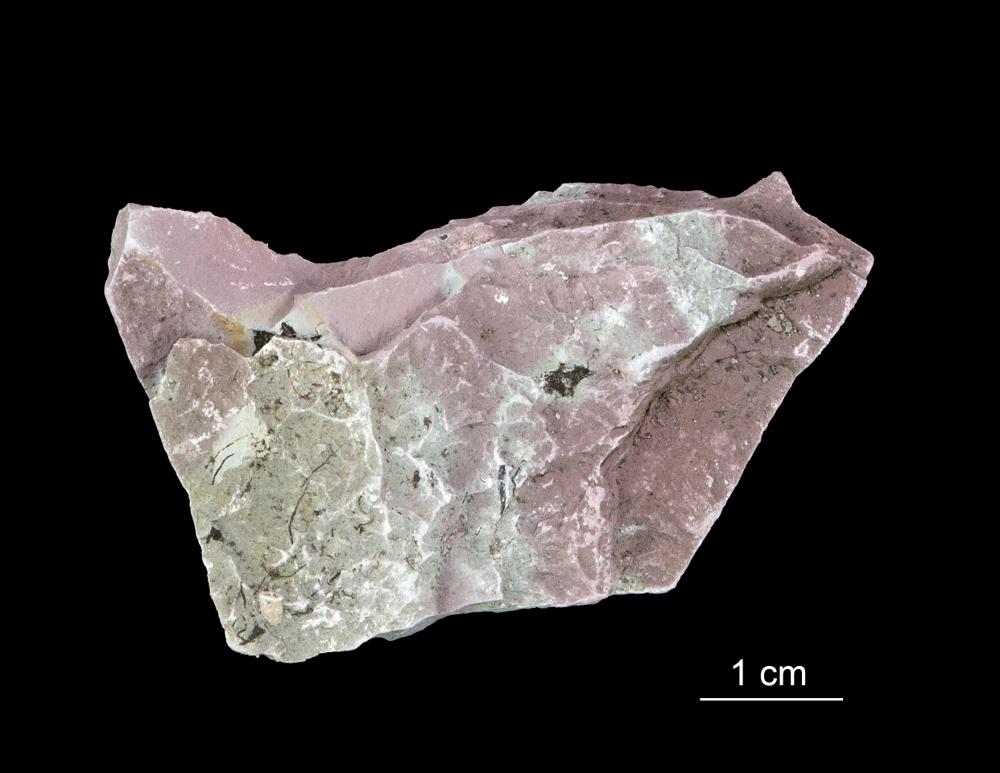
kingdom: Chromista
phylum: Foraminifera
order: Astrorhizida
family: Hyperamminidae
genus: Platysolenites
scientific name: Platysolenites antiquissimus
